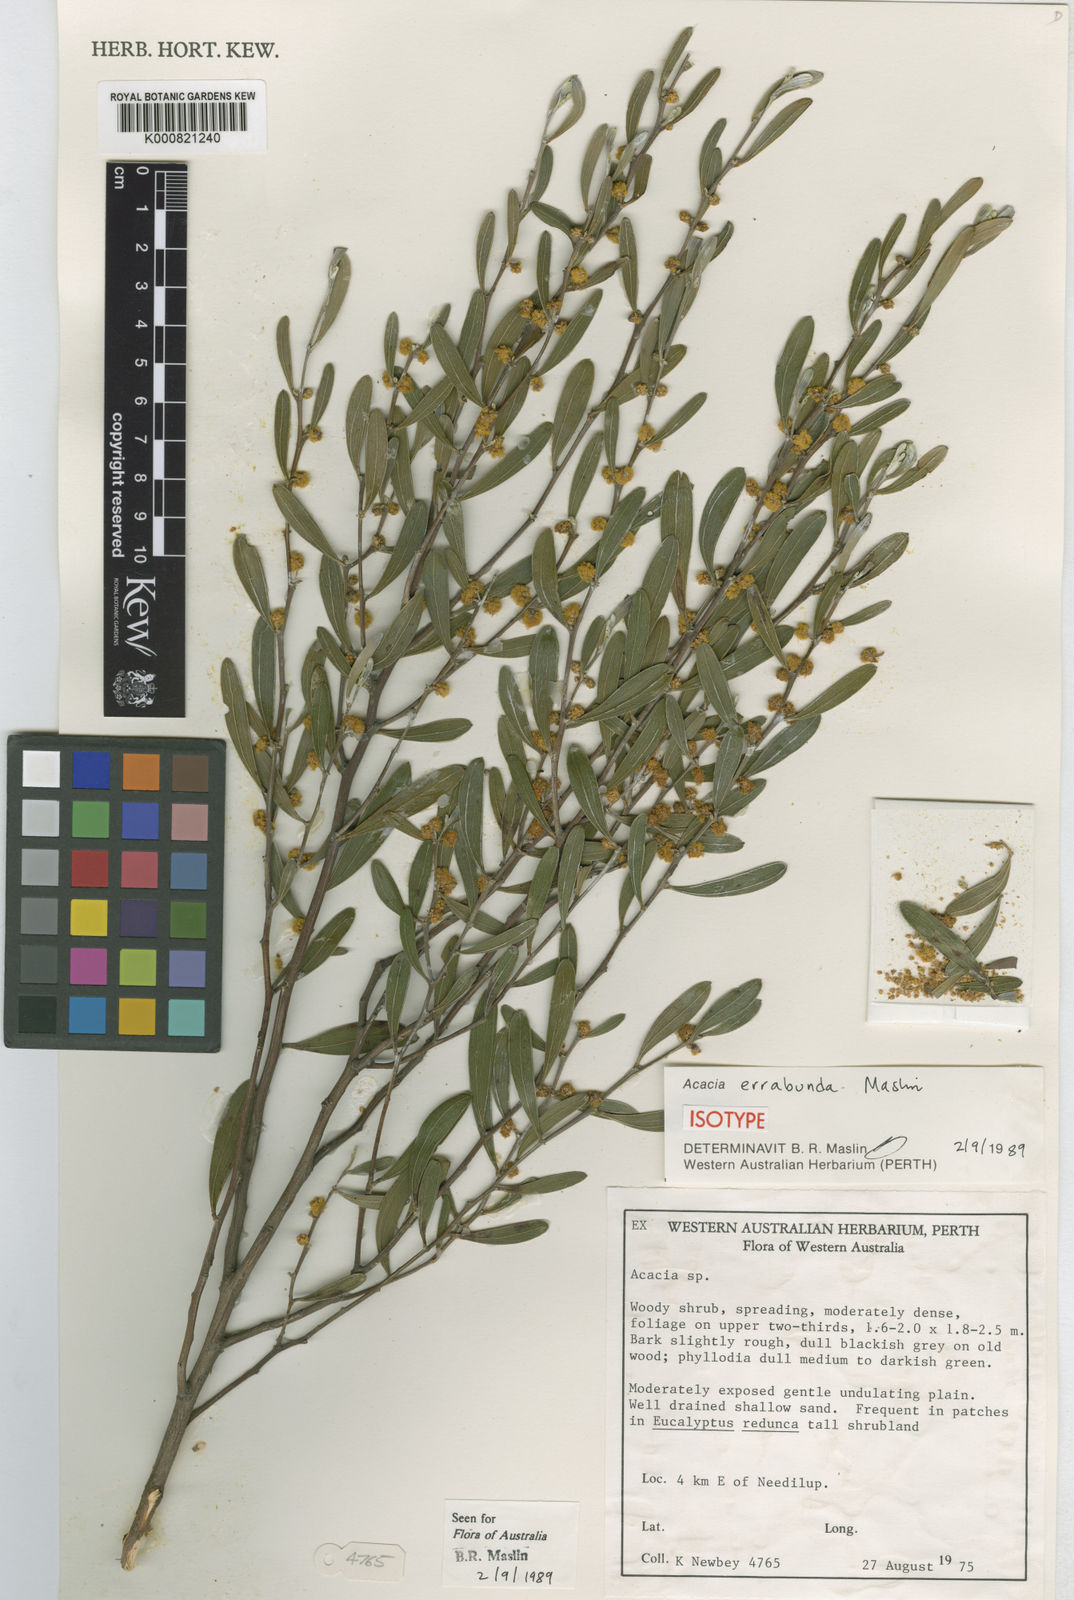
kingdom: Plantae
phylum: Tracheophyta
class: Magnoliopsida
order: Fabales
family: Fabaceae
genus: Acacia
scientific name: Acacia errabunda
